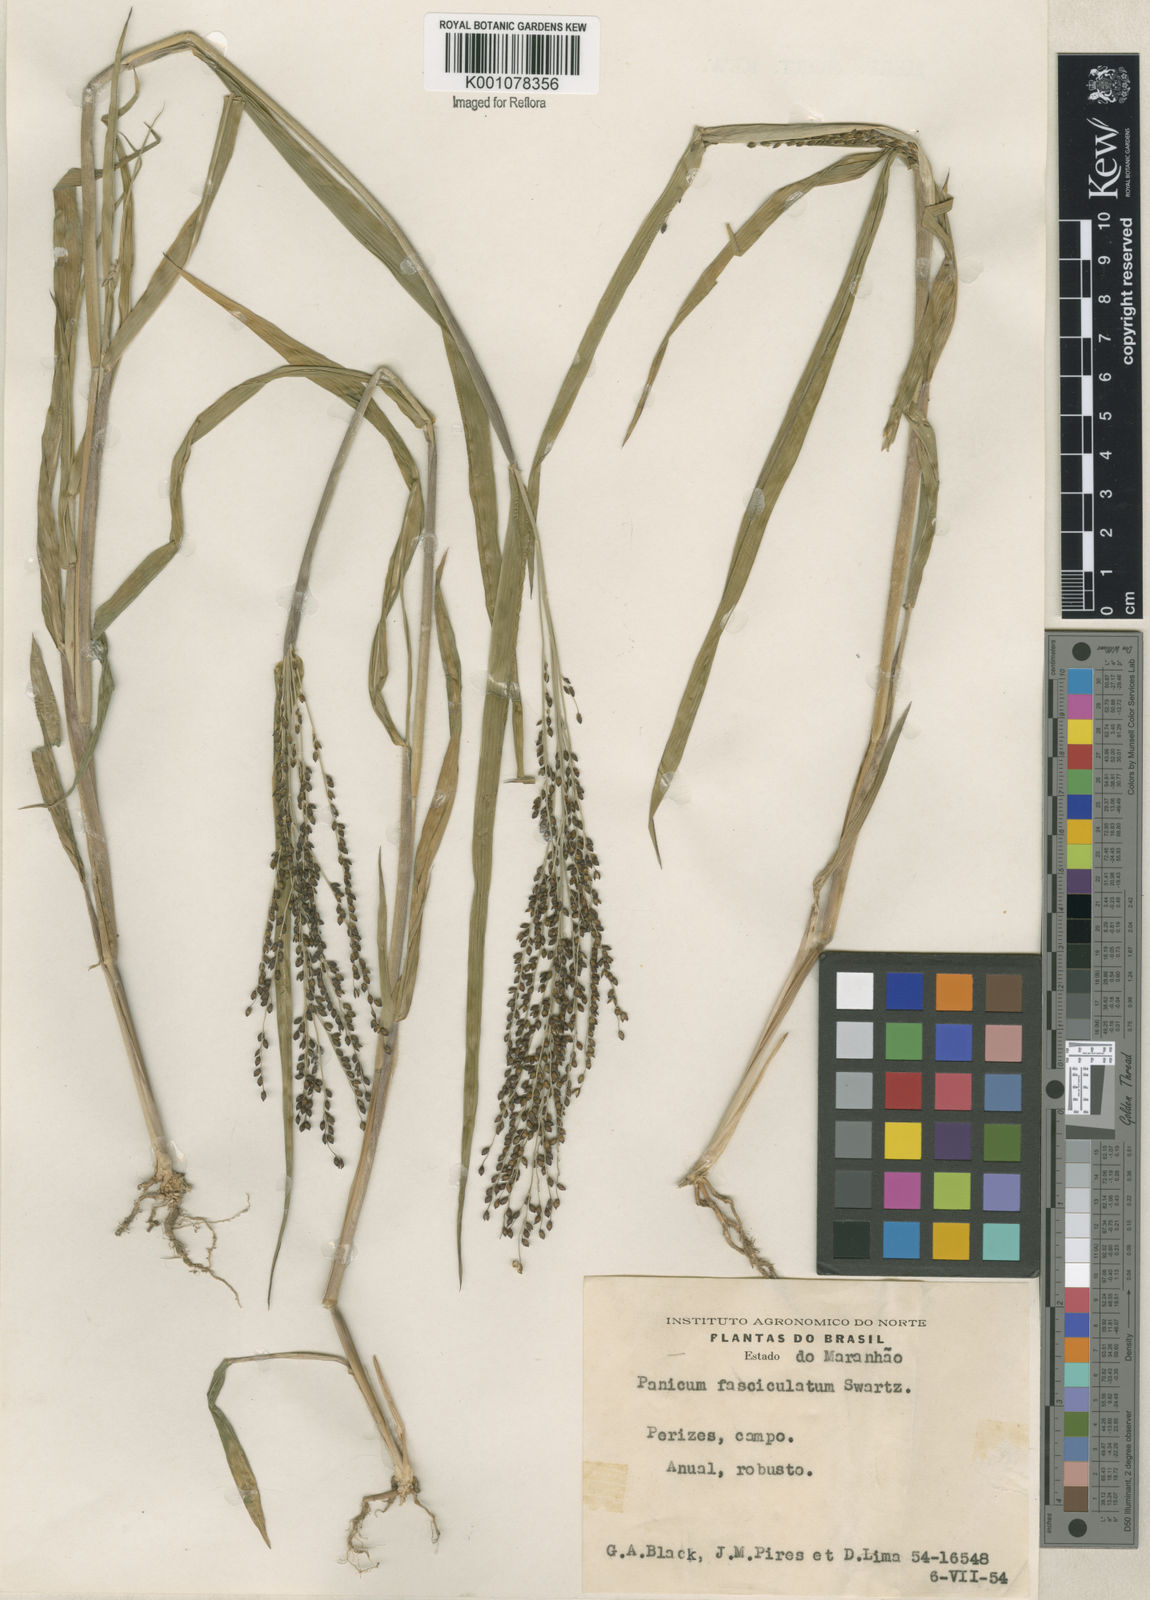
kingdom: Plantae
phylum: Tracheophyta
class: Liliopsida
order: Poales
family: Poaceae
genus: Urochloa
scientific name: Urochloa fusca
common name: Browntop signal grass
